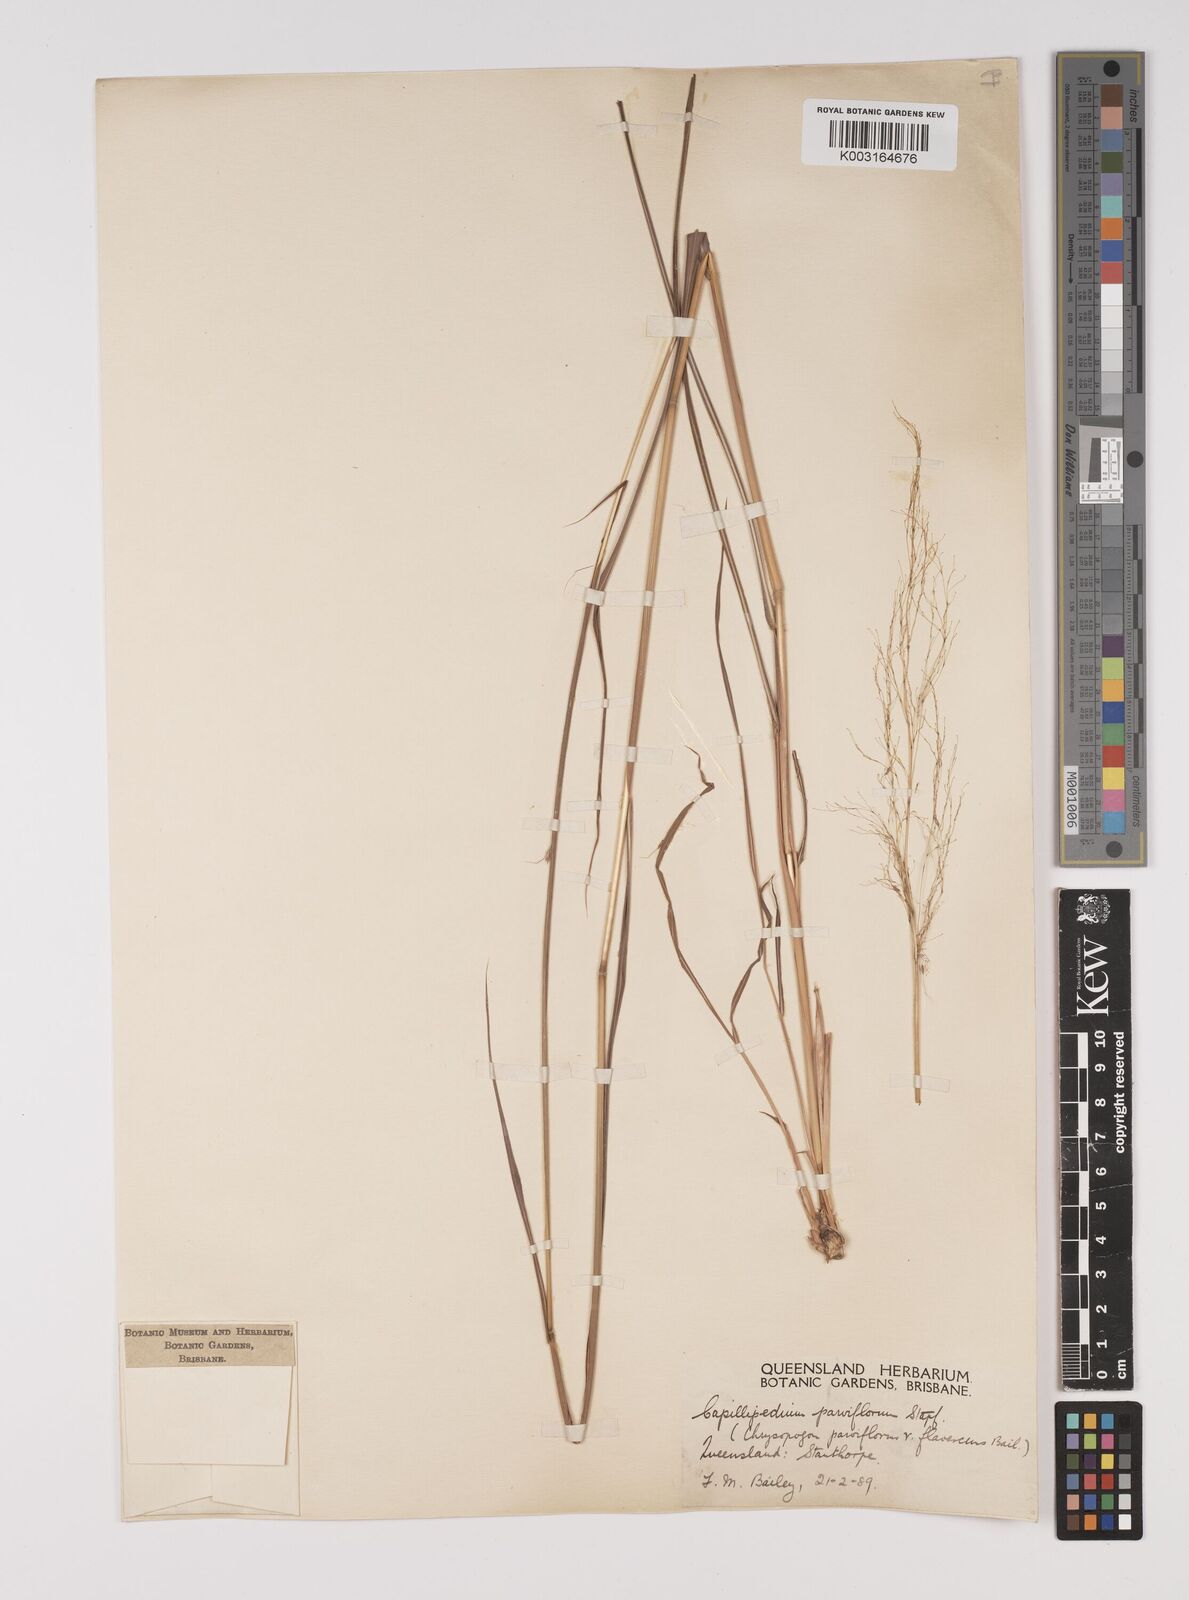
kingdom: Plantae
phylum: Tracheophyta
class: Liliopsida
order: Poales
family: Poaceae
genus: Capillipedium
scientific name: Capillipedium parviflorum
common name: Golden-beard
